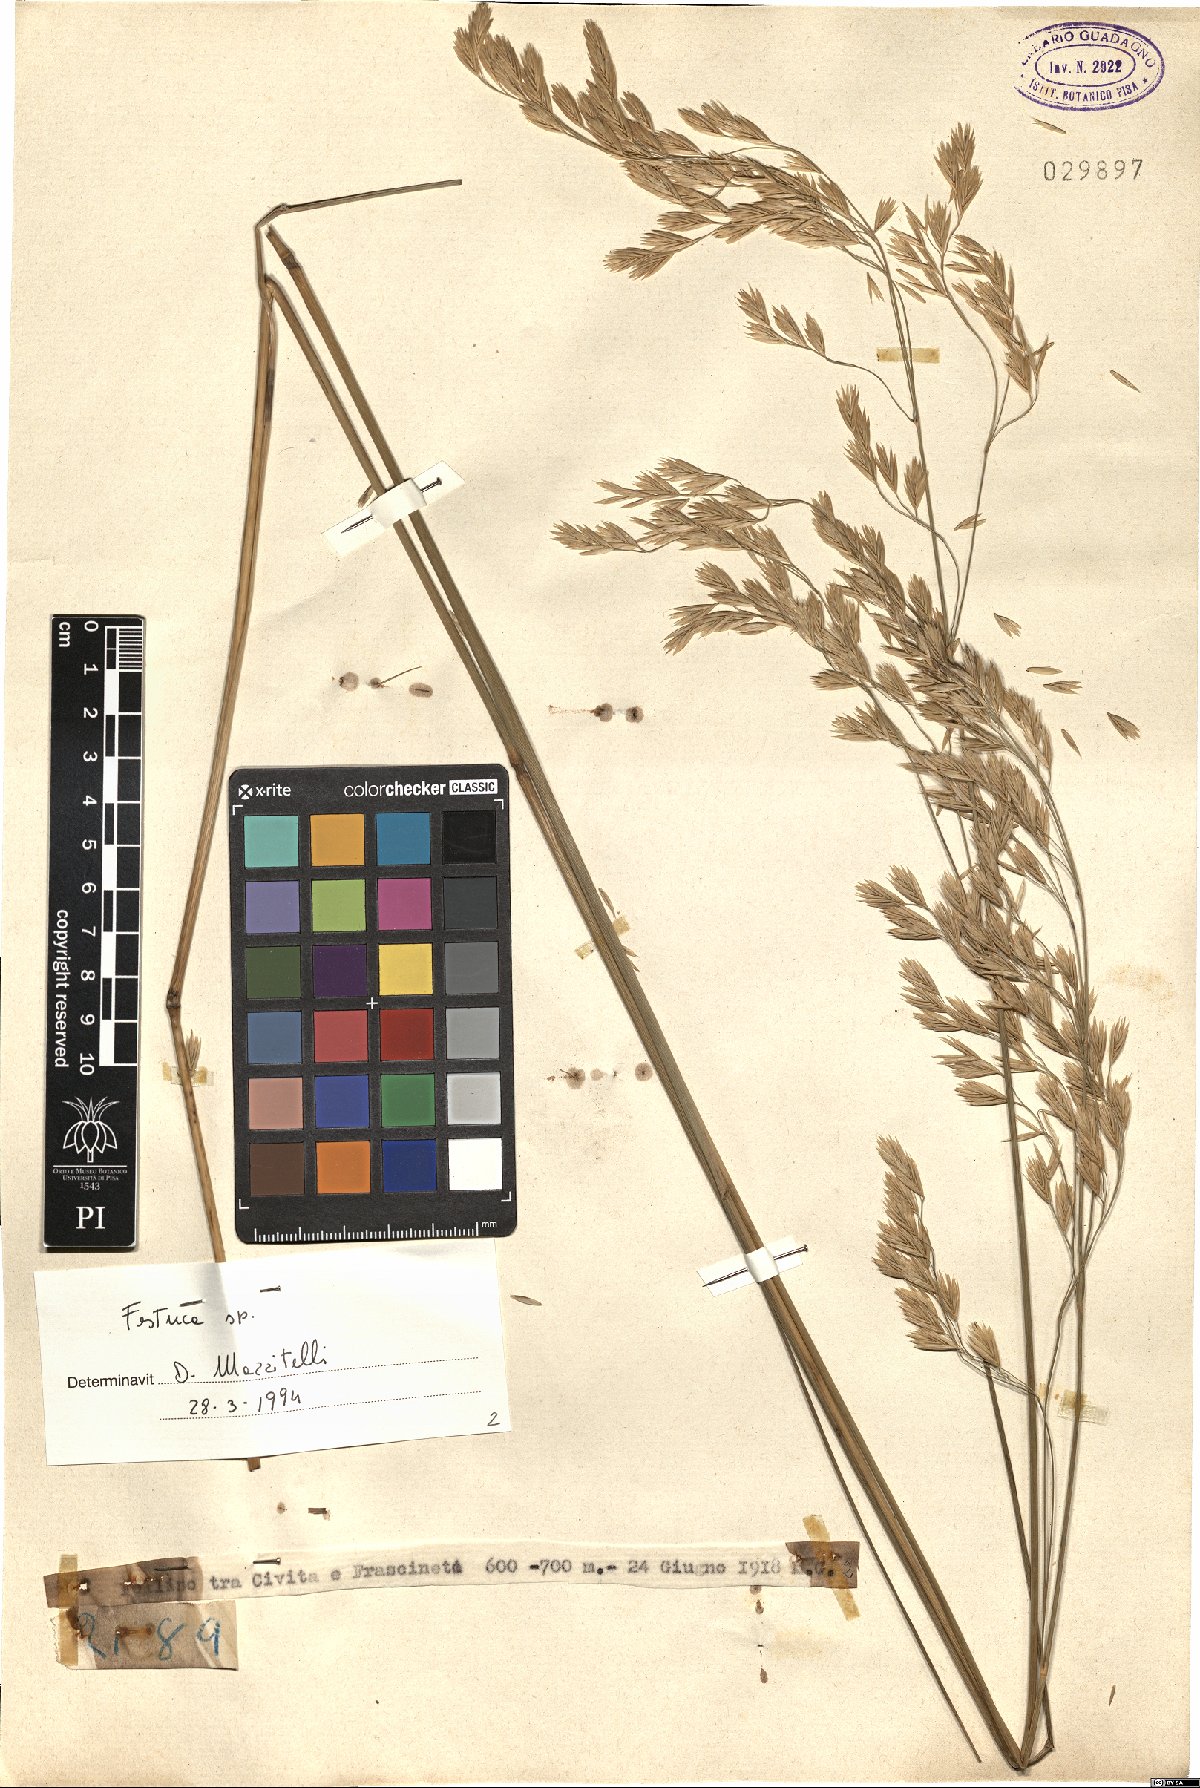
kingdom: Plantae
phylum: Tracheophyta
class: Liliopsida
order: Poales
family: Poaceae
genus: Festuca
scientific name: Festuca
